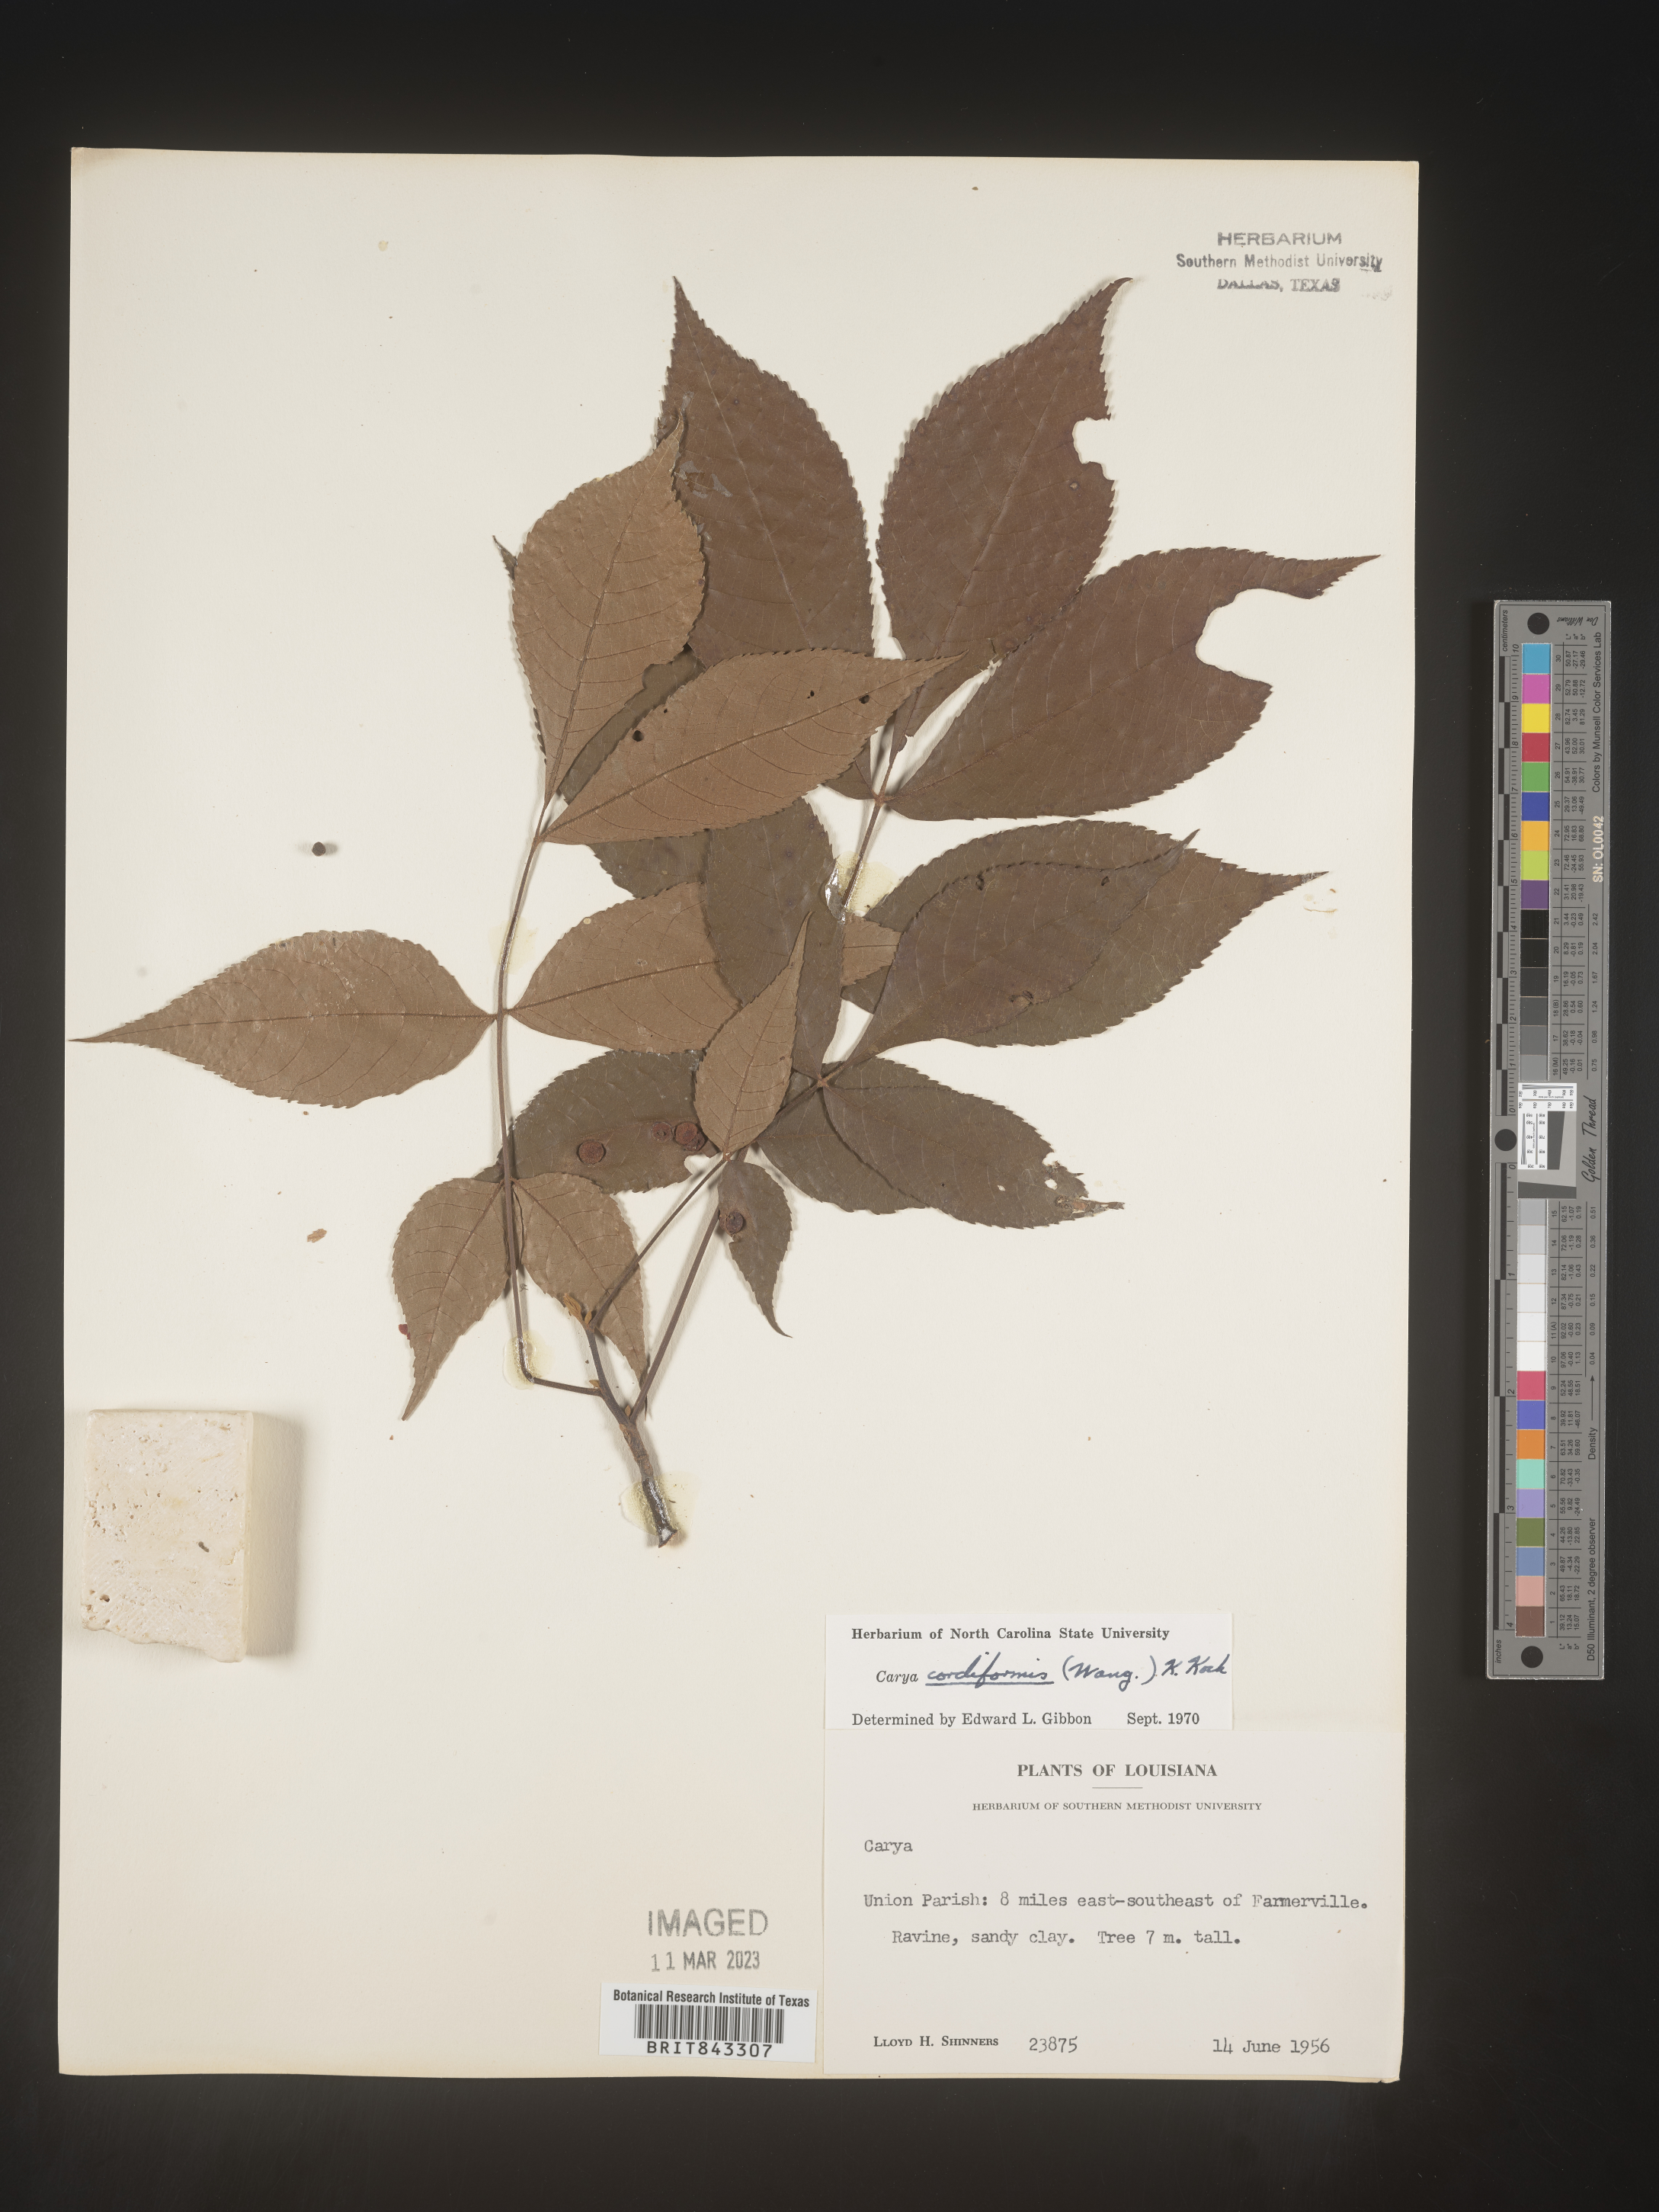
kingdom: Plantae
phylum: Tracheophyta
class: Magnoliopsida
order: Fagales
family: Juglandaceae
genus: Carya
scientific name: Carya cordiformis
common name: Bitternut hickory
